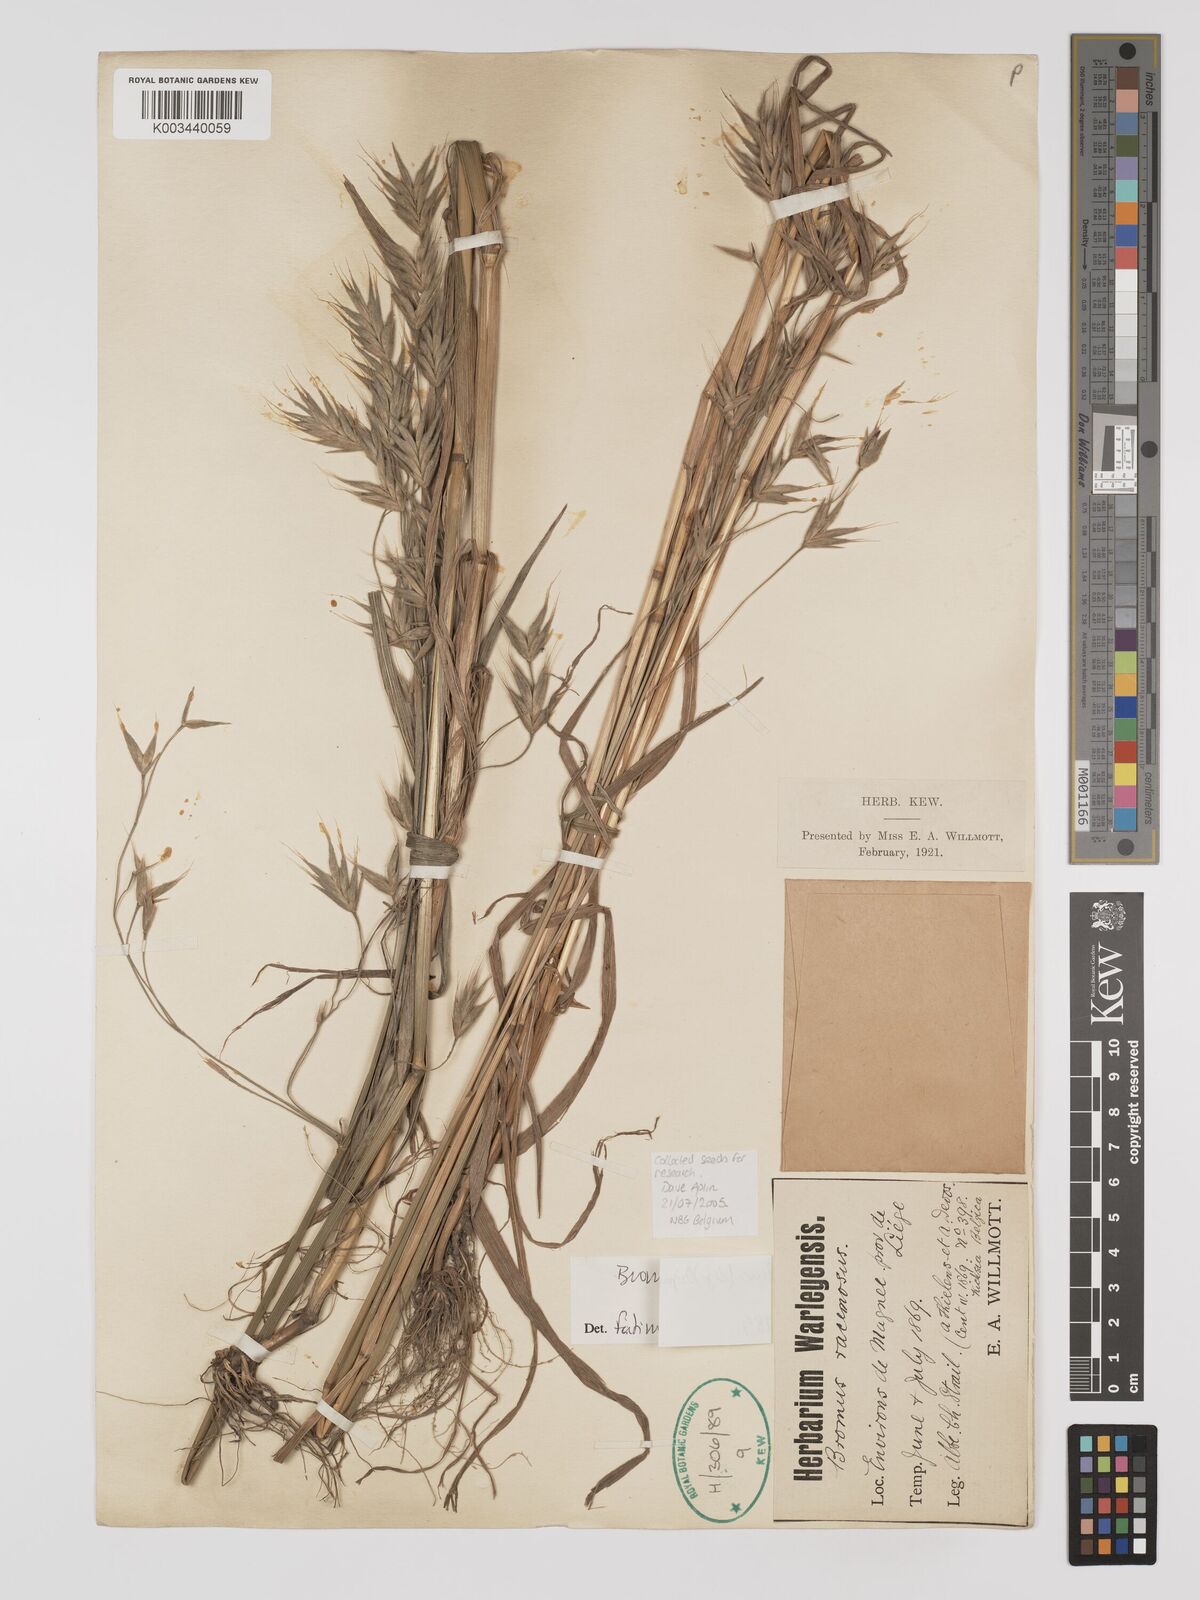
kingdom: Plantae
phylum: Tracheophyta
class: Liliopsida
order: Poales
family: Poaceae
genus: Bromus
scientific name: Bromus bromoideus
